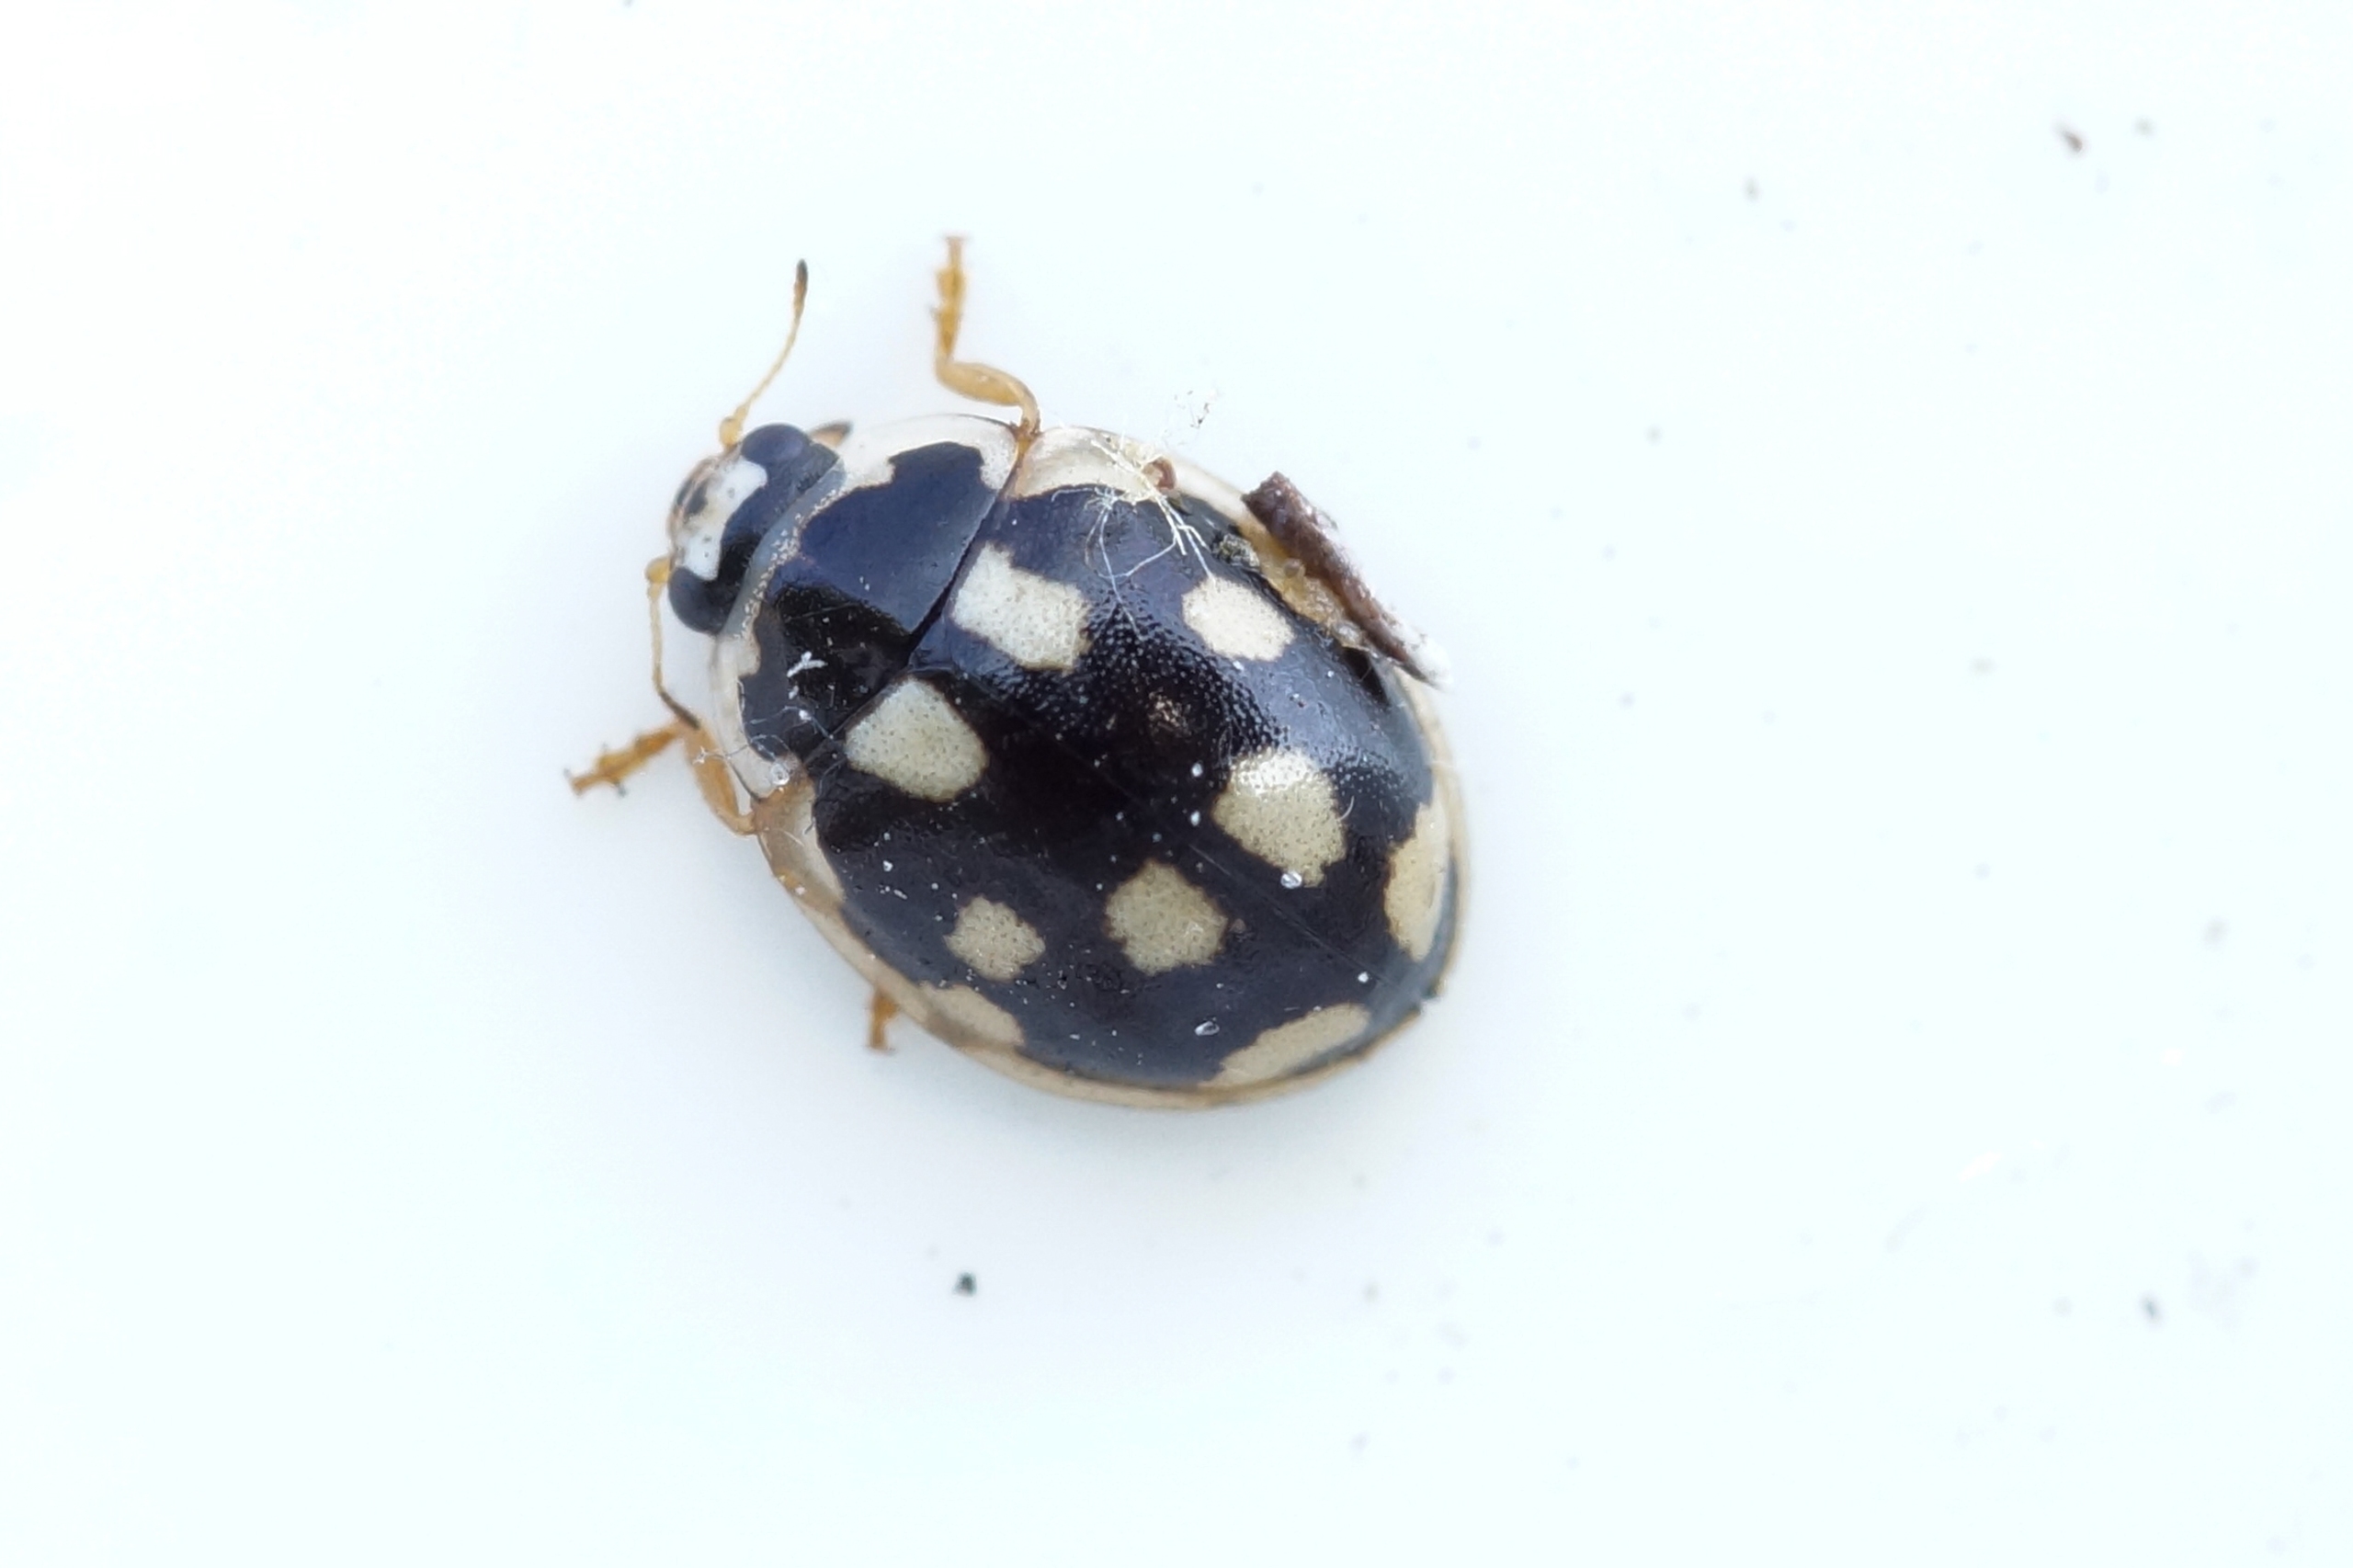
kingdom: Animalia
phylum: Arthropoda
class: Insecta
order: Coleoptera
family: Coccinellidae
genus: Propylaea
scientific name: Propylaea quatuordecimpunctata
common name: Skakbræt
